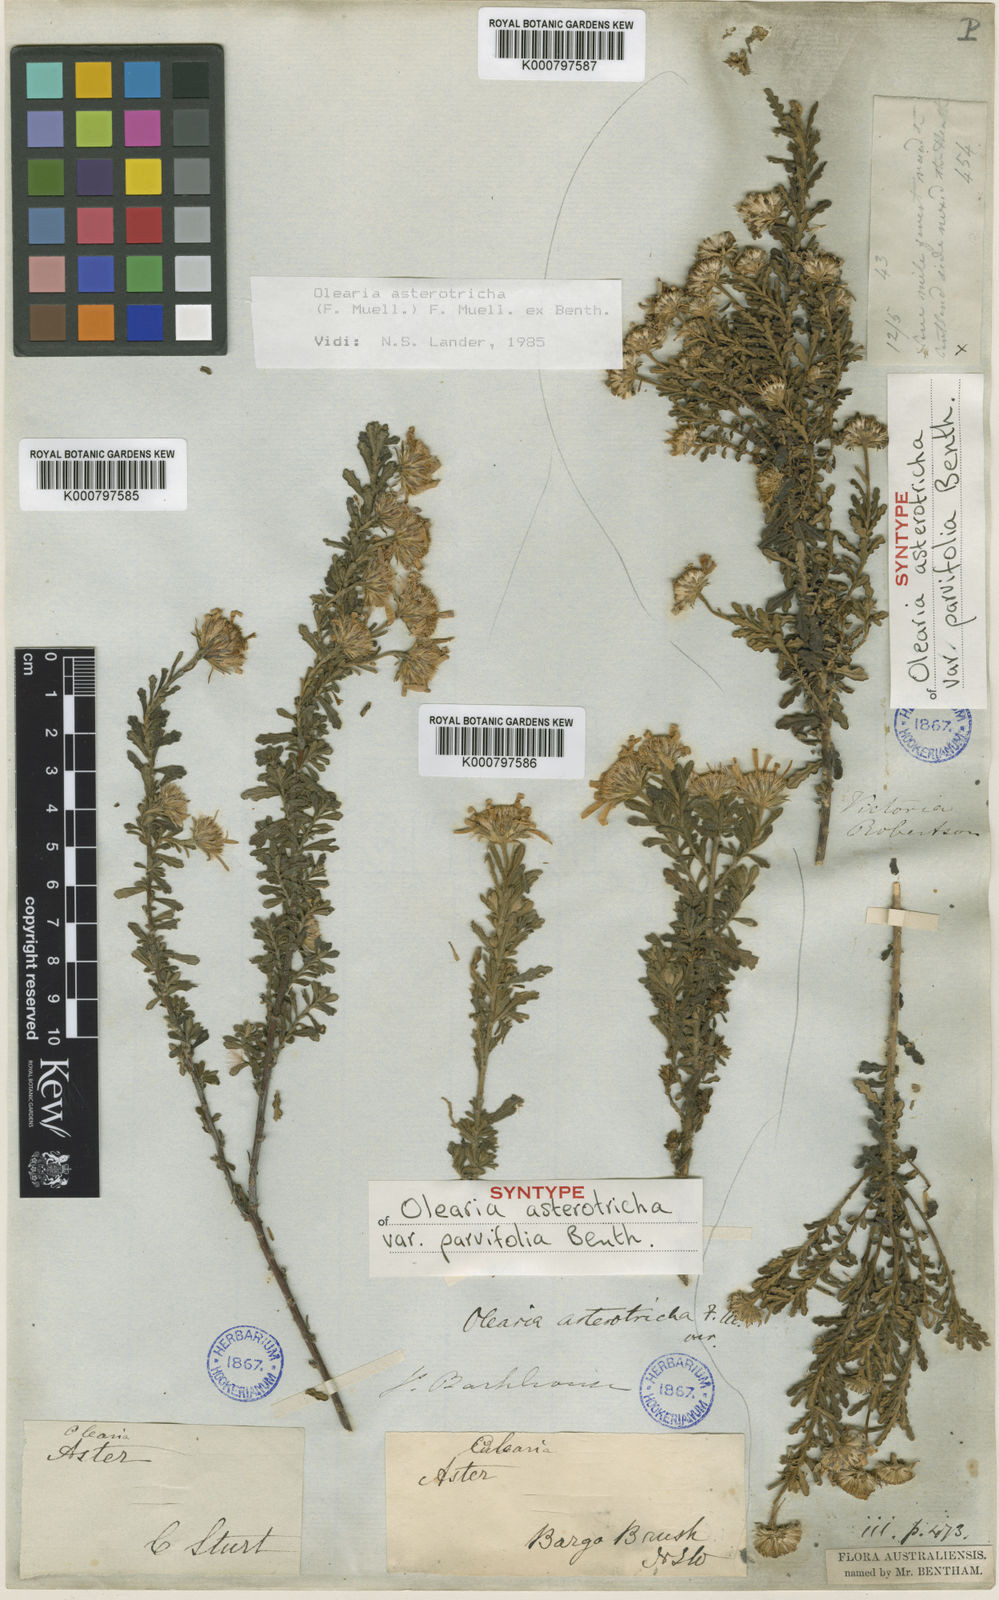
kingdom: Plantae
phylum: Tracheophyta
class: Magnoliopsida
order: Asterales
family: Asteraceae
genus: Olearia
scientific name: Olearia asterotricha
